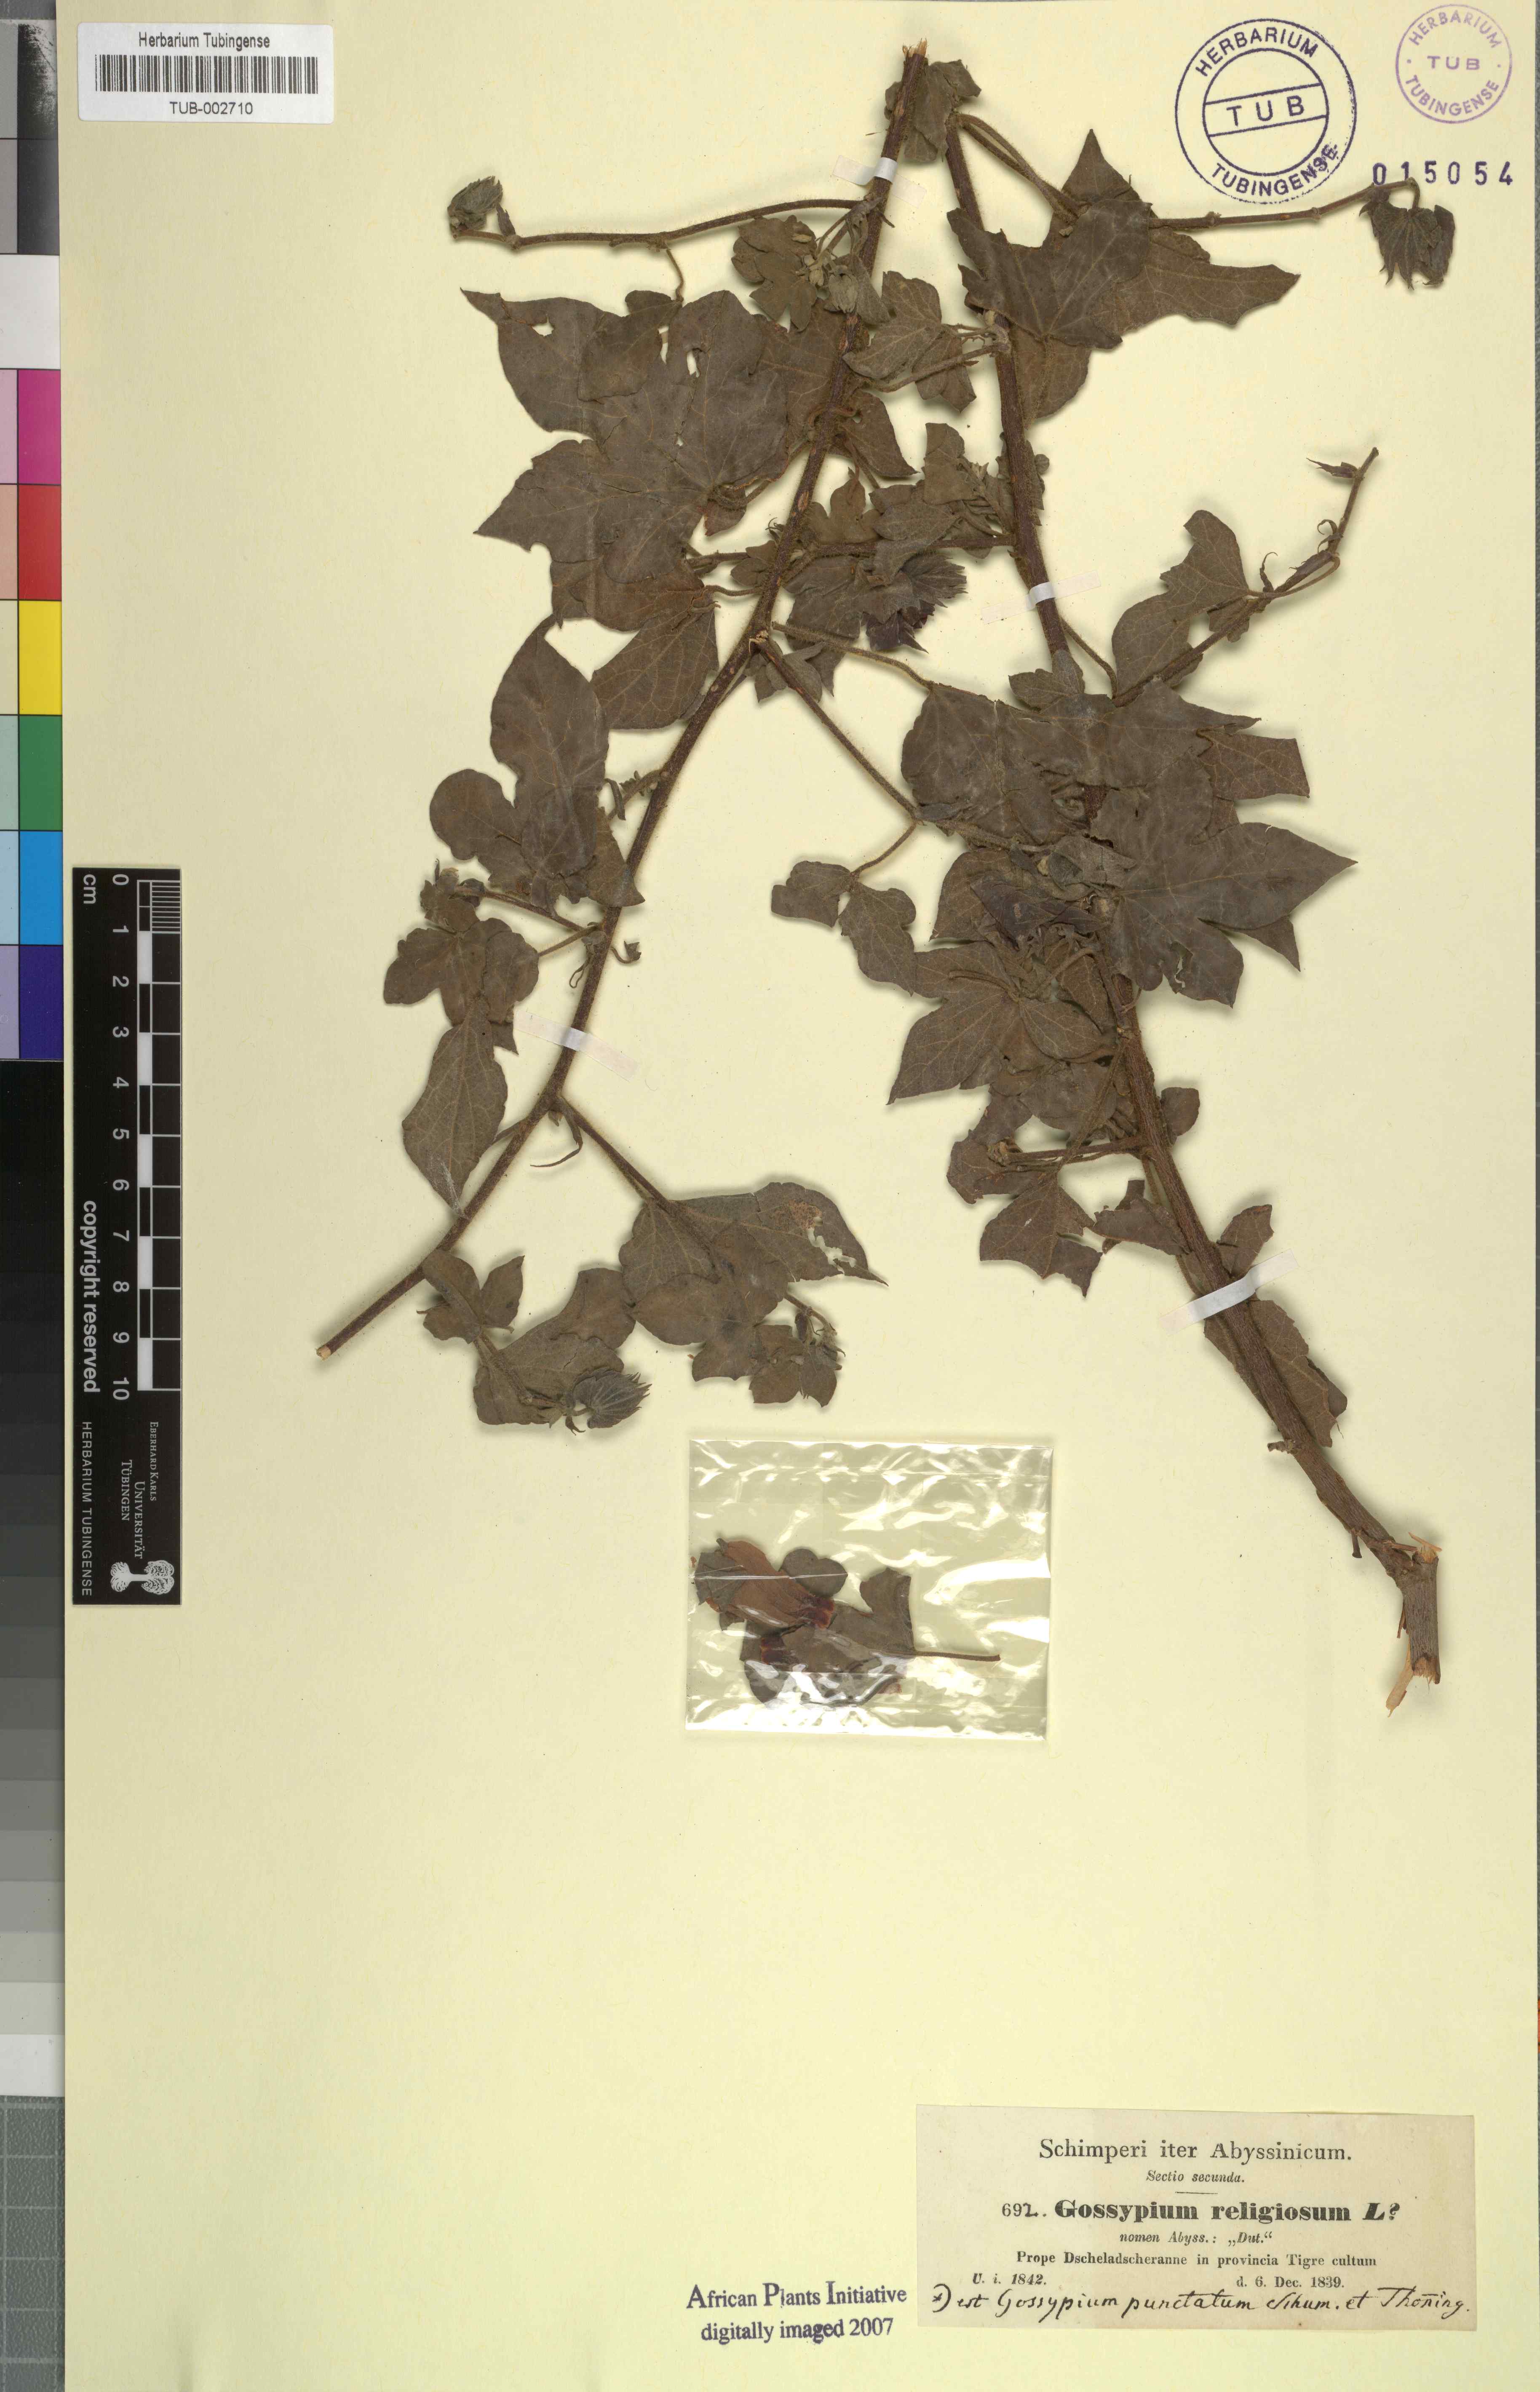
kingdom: Plantae
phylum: Tracheophyta
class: Magnoliopsida
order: Malvales
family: Malvaceae
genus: Gossypium
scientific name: Gossypium herbaceum
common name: Levant cotton
